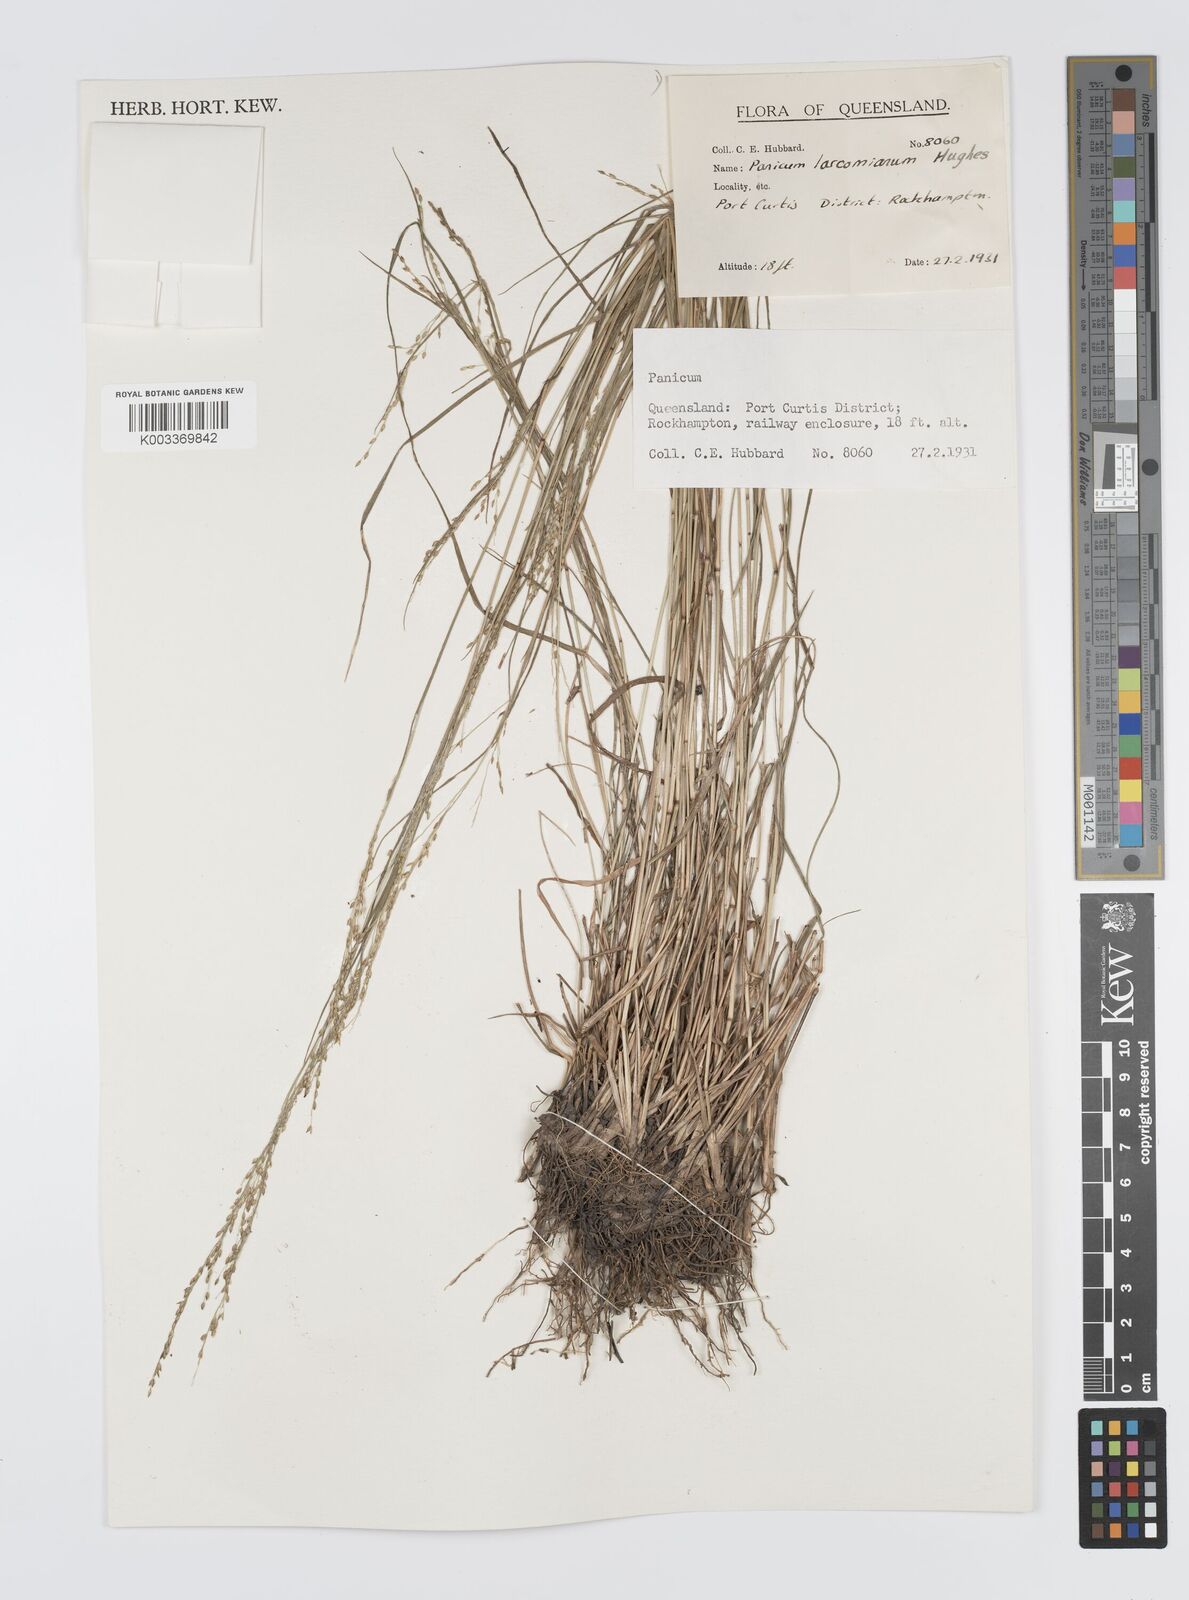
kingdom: Plantae
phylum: Tracheophyta
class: Liliopsida
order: Poales
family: Poaceae
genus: Panicum
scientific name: Panicum larcomianum
